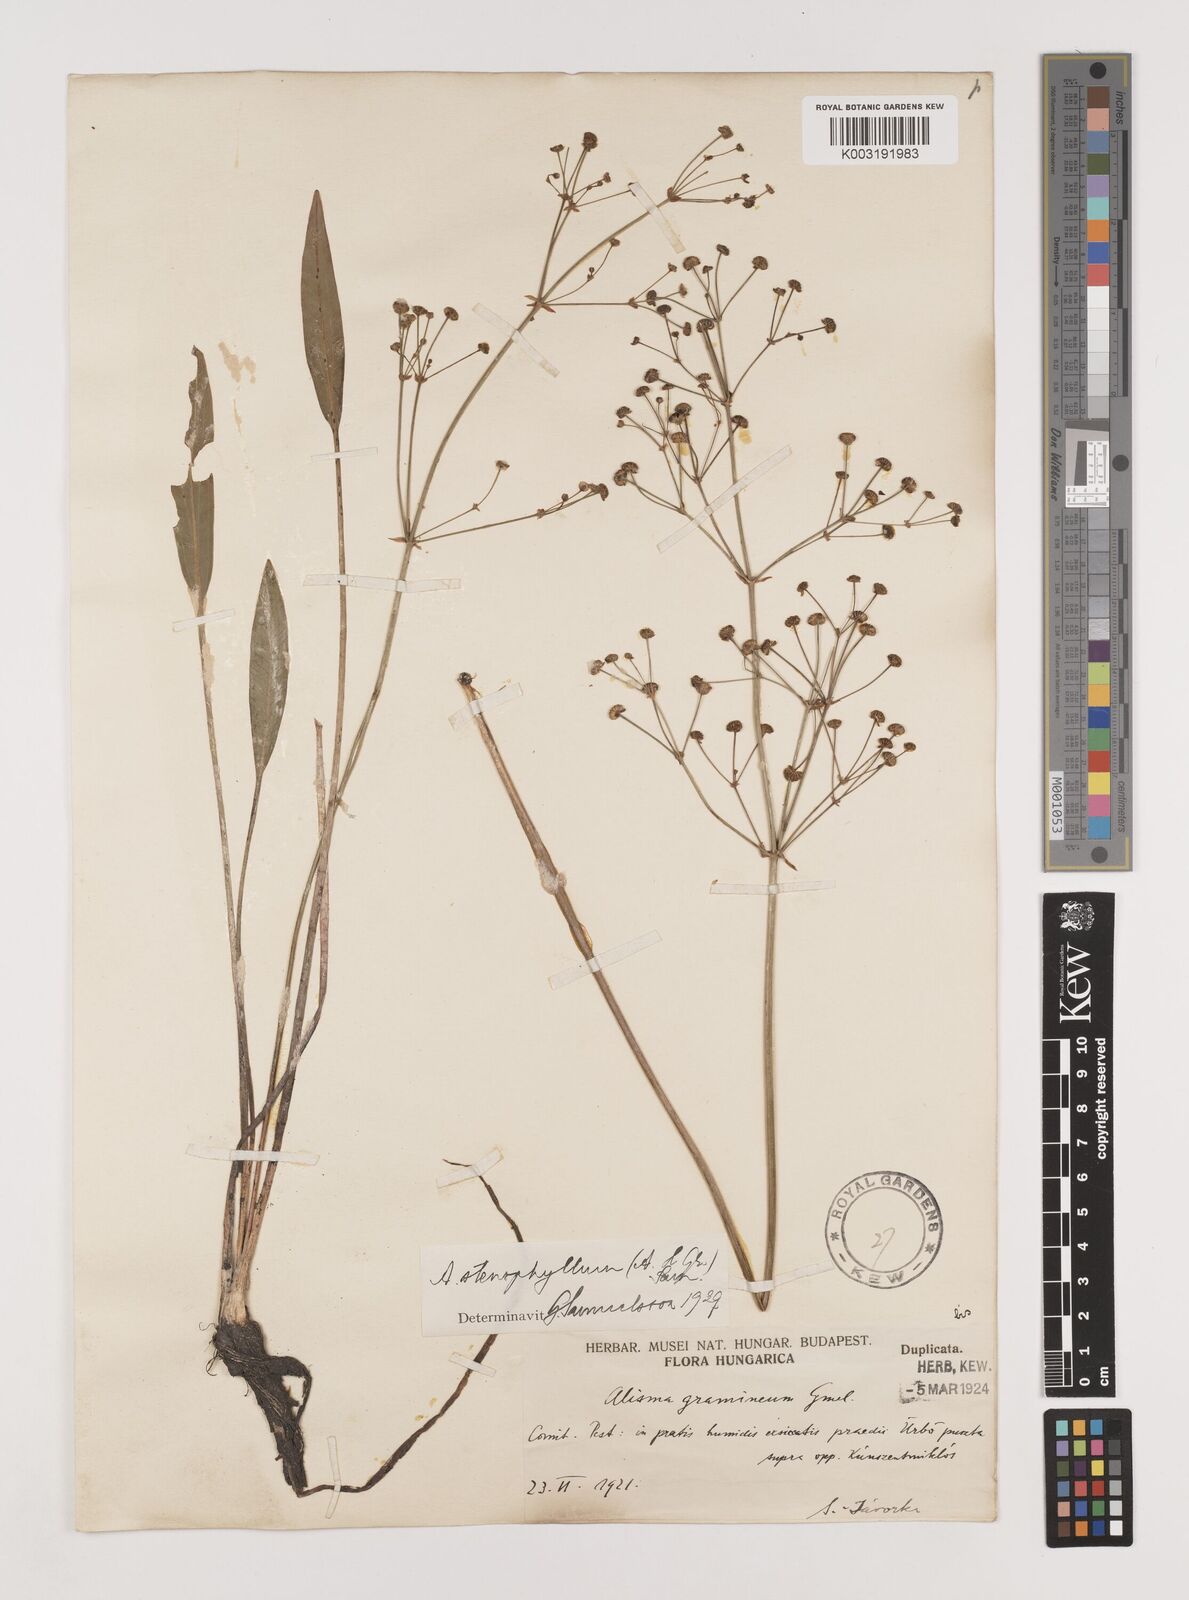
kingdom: Plantae
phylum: Tracheophyta
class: Liliopsida
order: Alismatales
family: Alismataceae
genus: Alisma
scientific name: Alisma lanceolatum
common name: Narrow-leaved water-plantain
